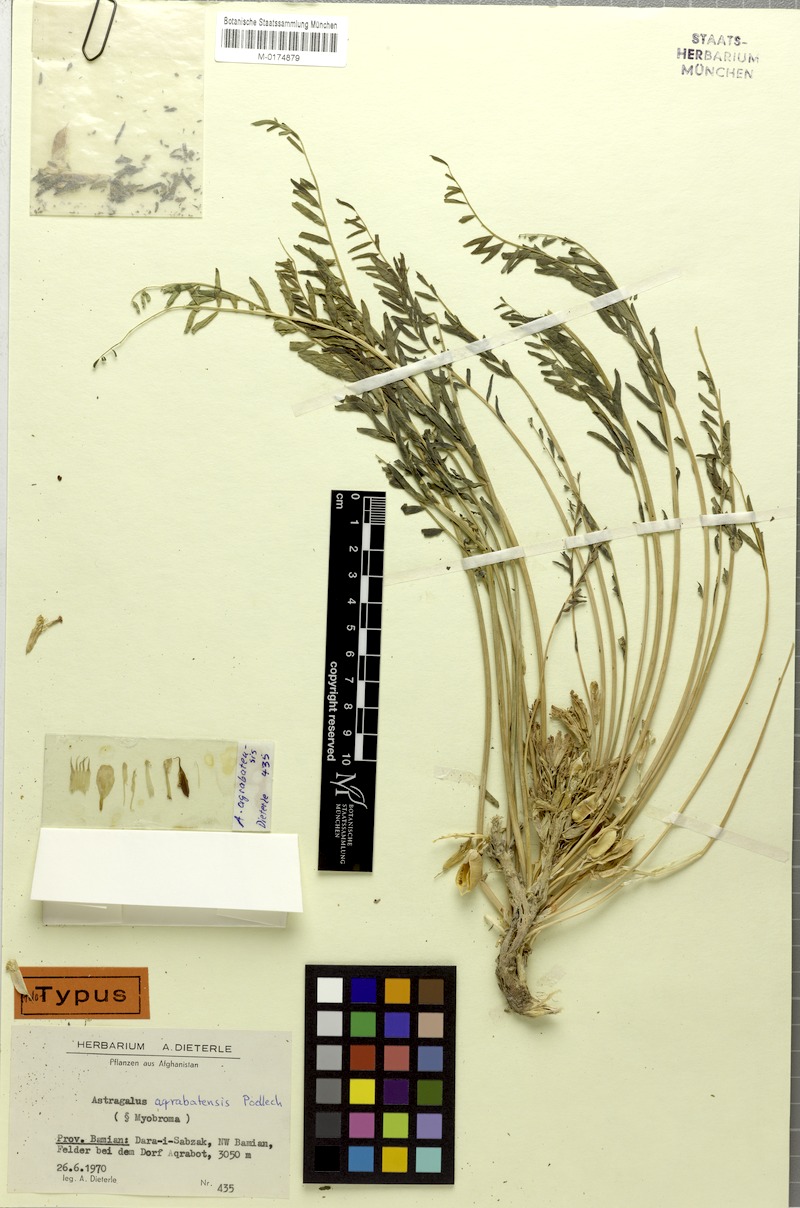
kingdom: Plantae
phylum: Tracheophyta
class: Magnoliopsida
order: Fabales
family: Fabaceae
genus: Astragalus
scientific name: Astragalus aqrabatensis
